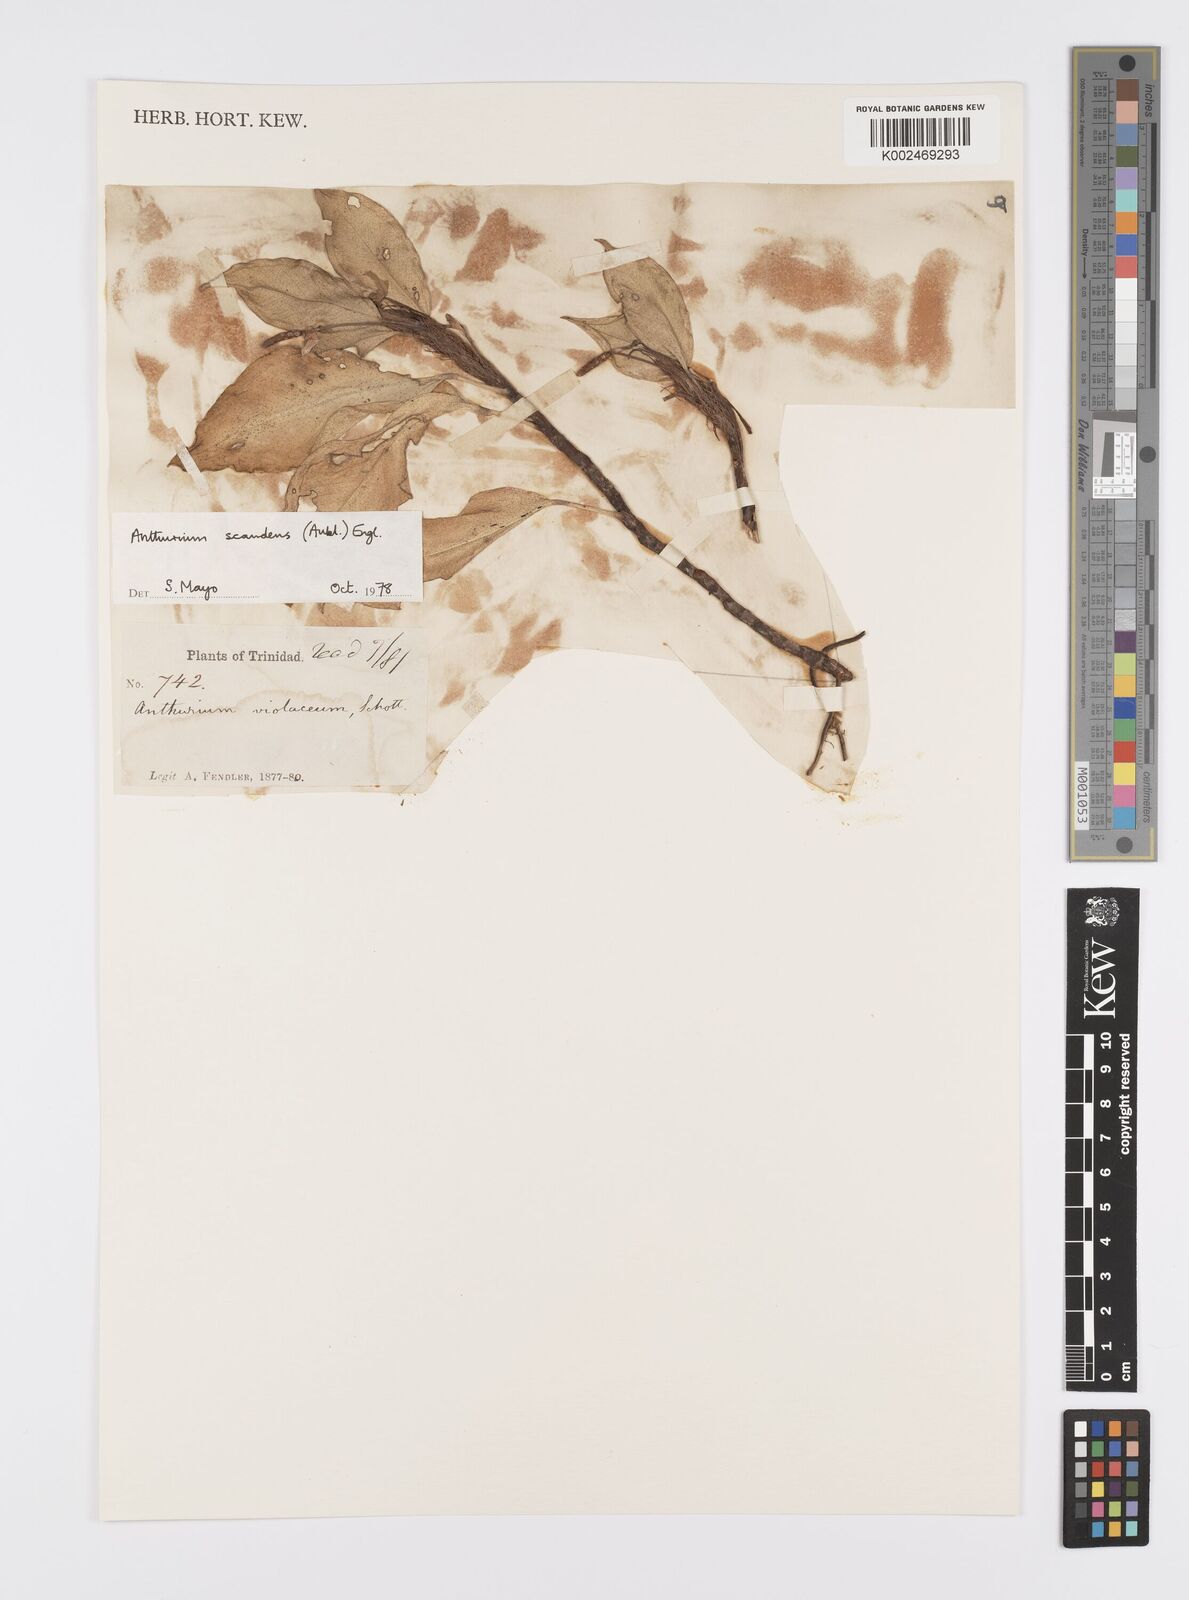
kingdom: Plantae
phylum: Tracheophyta
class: Liliopsida
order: Alismatales
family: Araceae
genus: Anthurium
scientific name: Anthurium scandens
